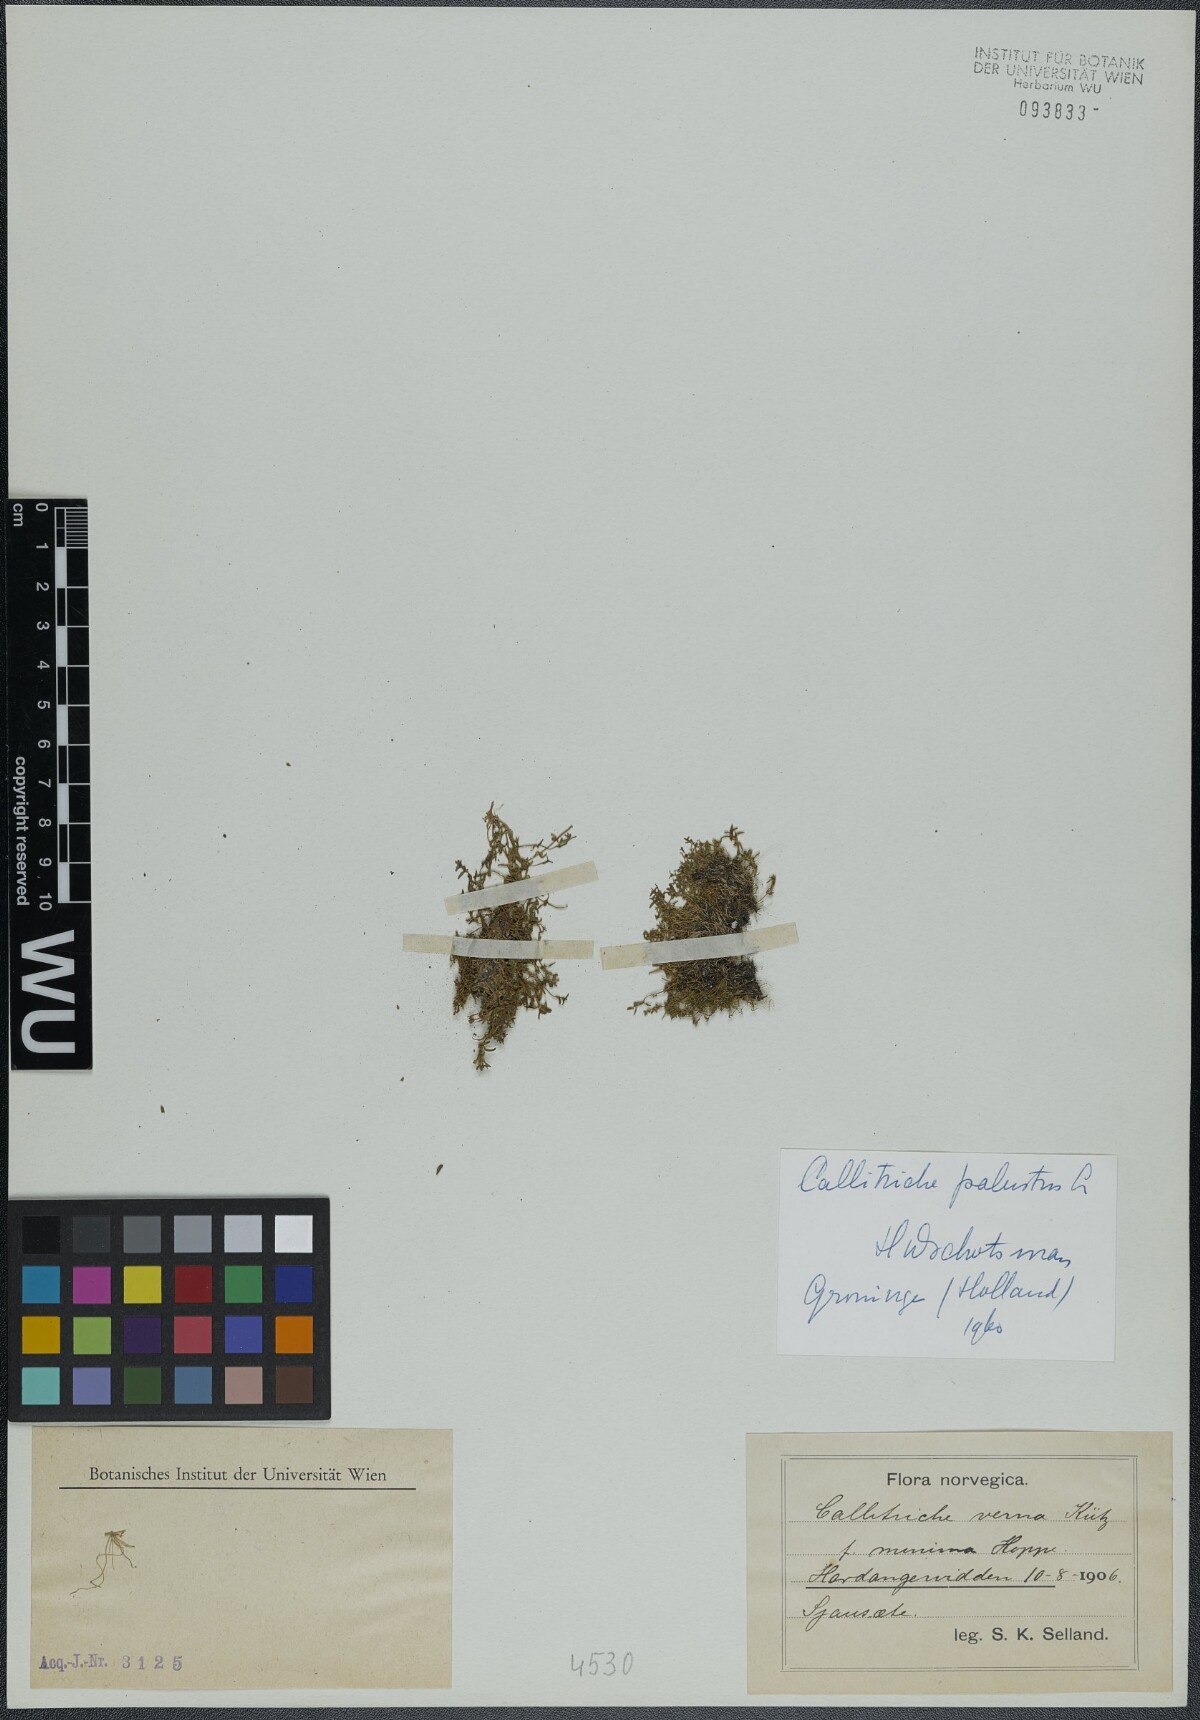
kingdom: Plantae
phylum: Tracheophyta
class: Magnoliopsida
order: Lamiales
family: Plantaginaceae
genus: Callitriche
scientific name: Callitriche palustris
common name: Spring water-starwort
